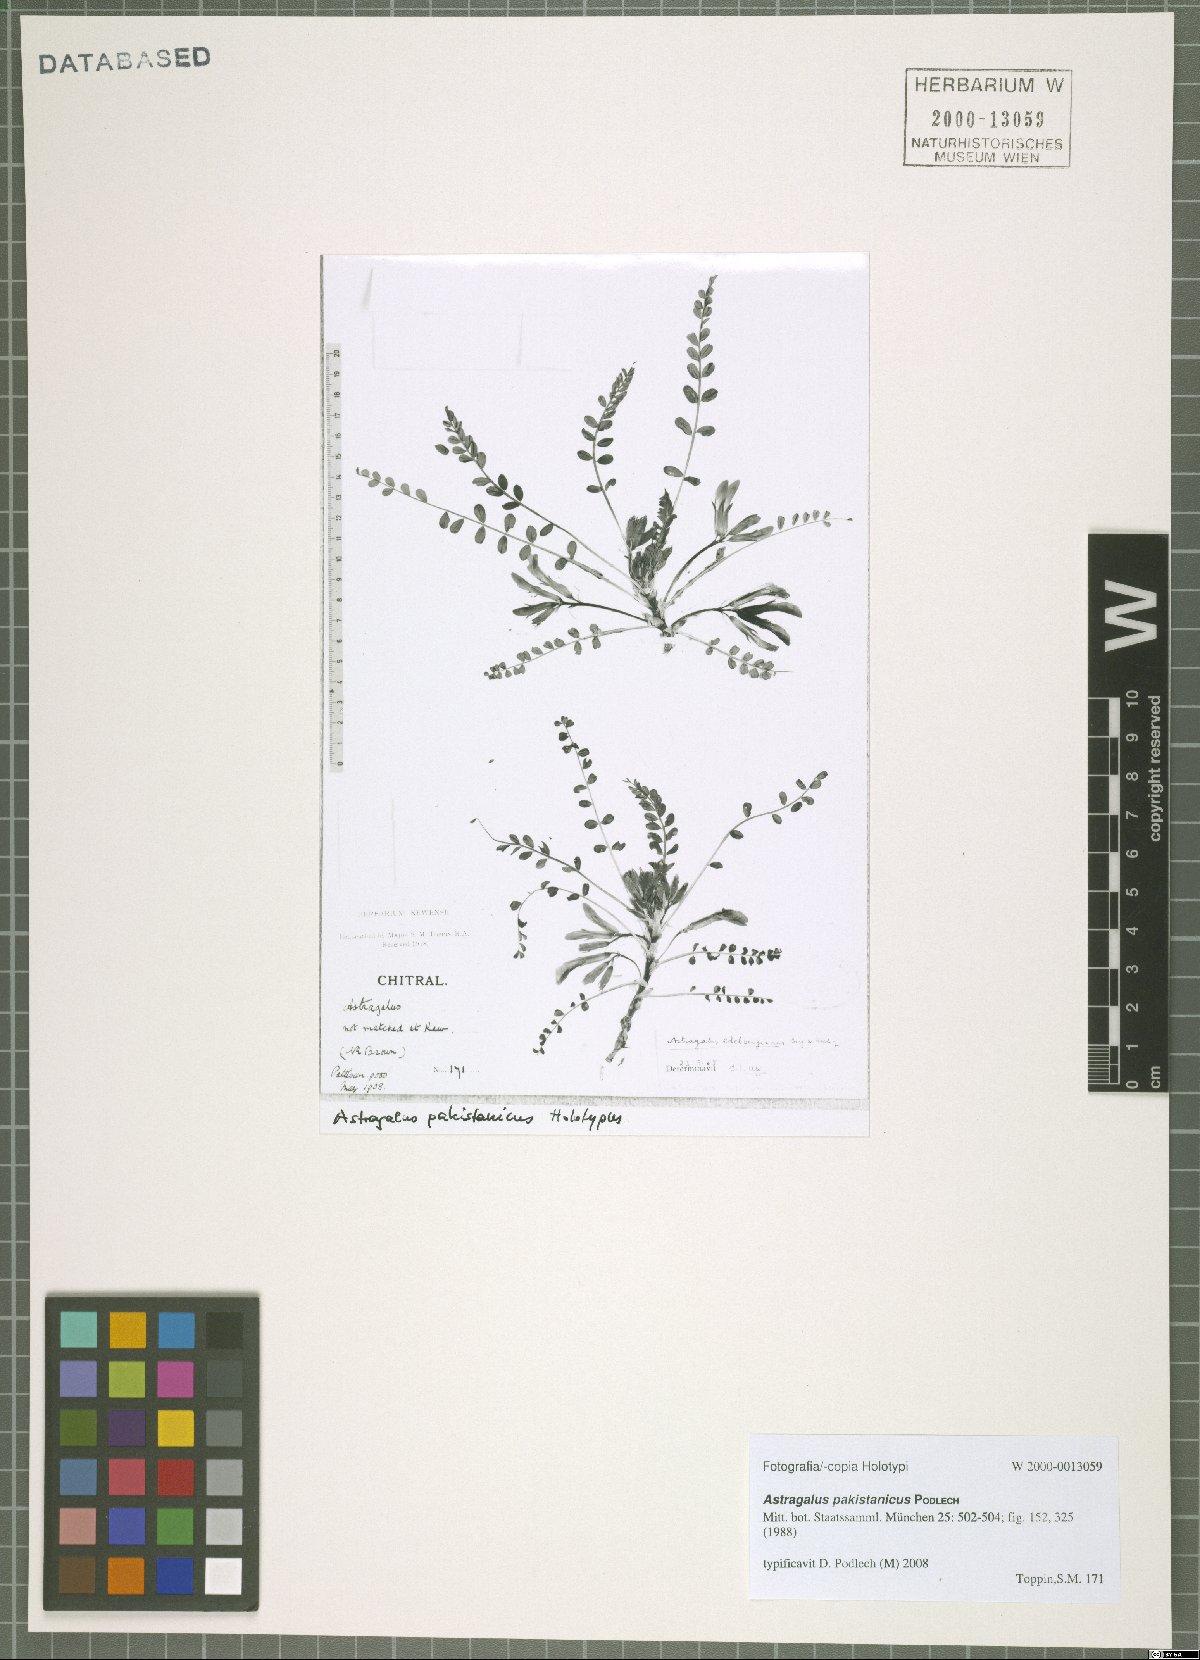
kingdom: Plantae
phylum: Tracheophyta
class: Magnoliopsida
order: Fabales
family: Fabaceae
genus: Astragalus
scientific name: Astragalus pakistanicus
